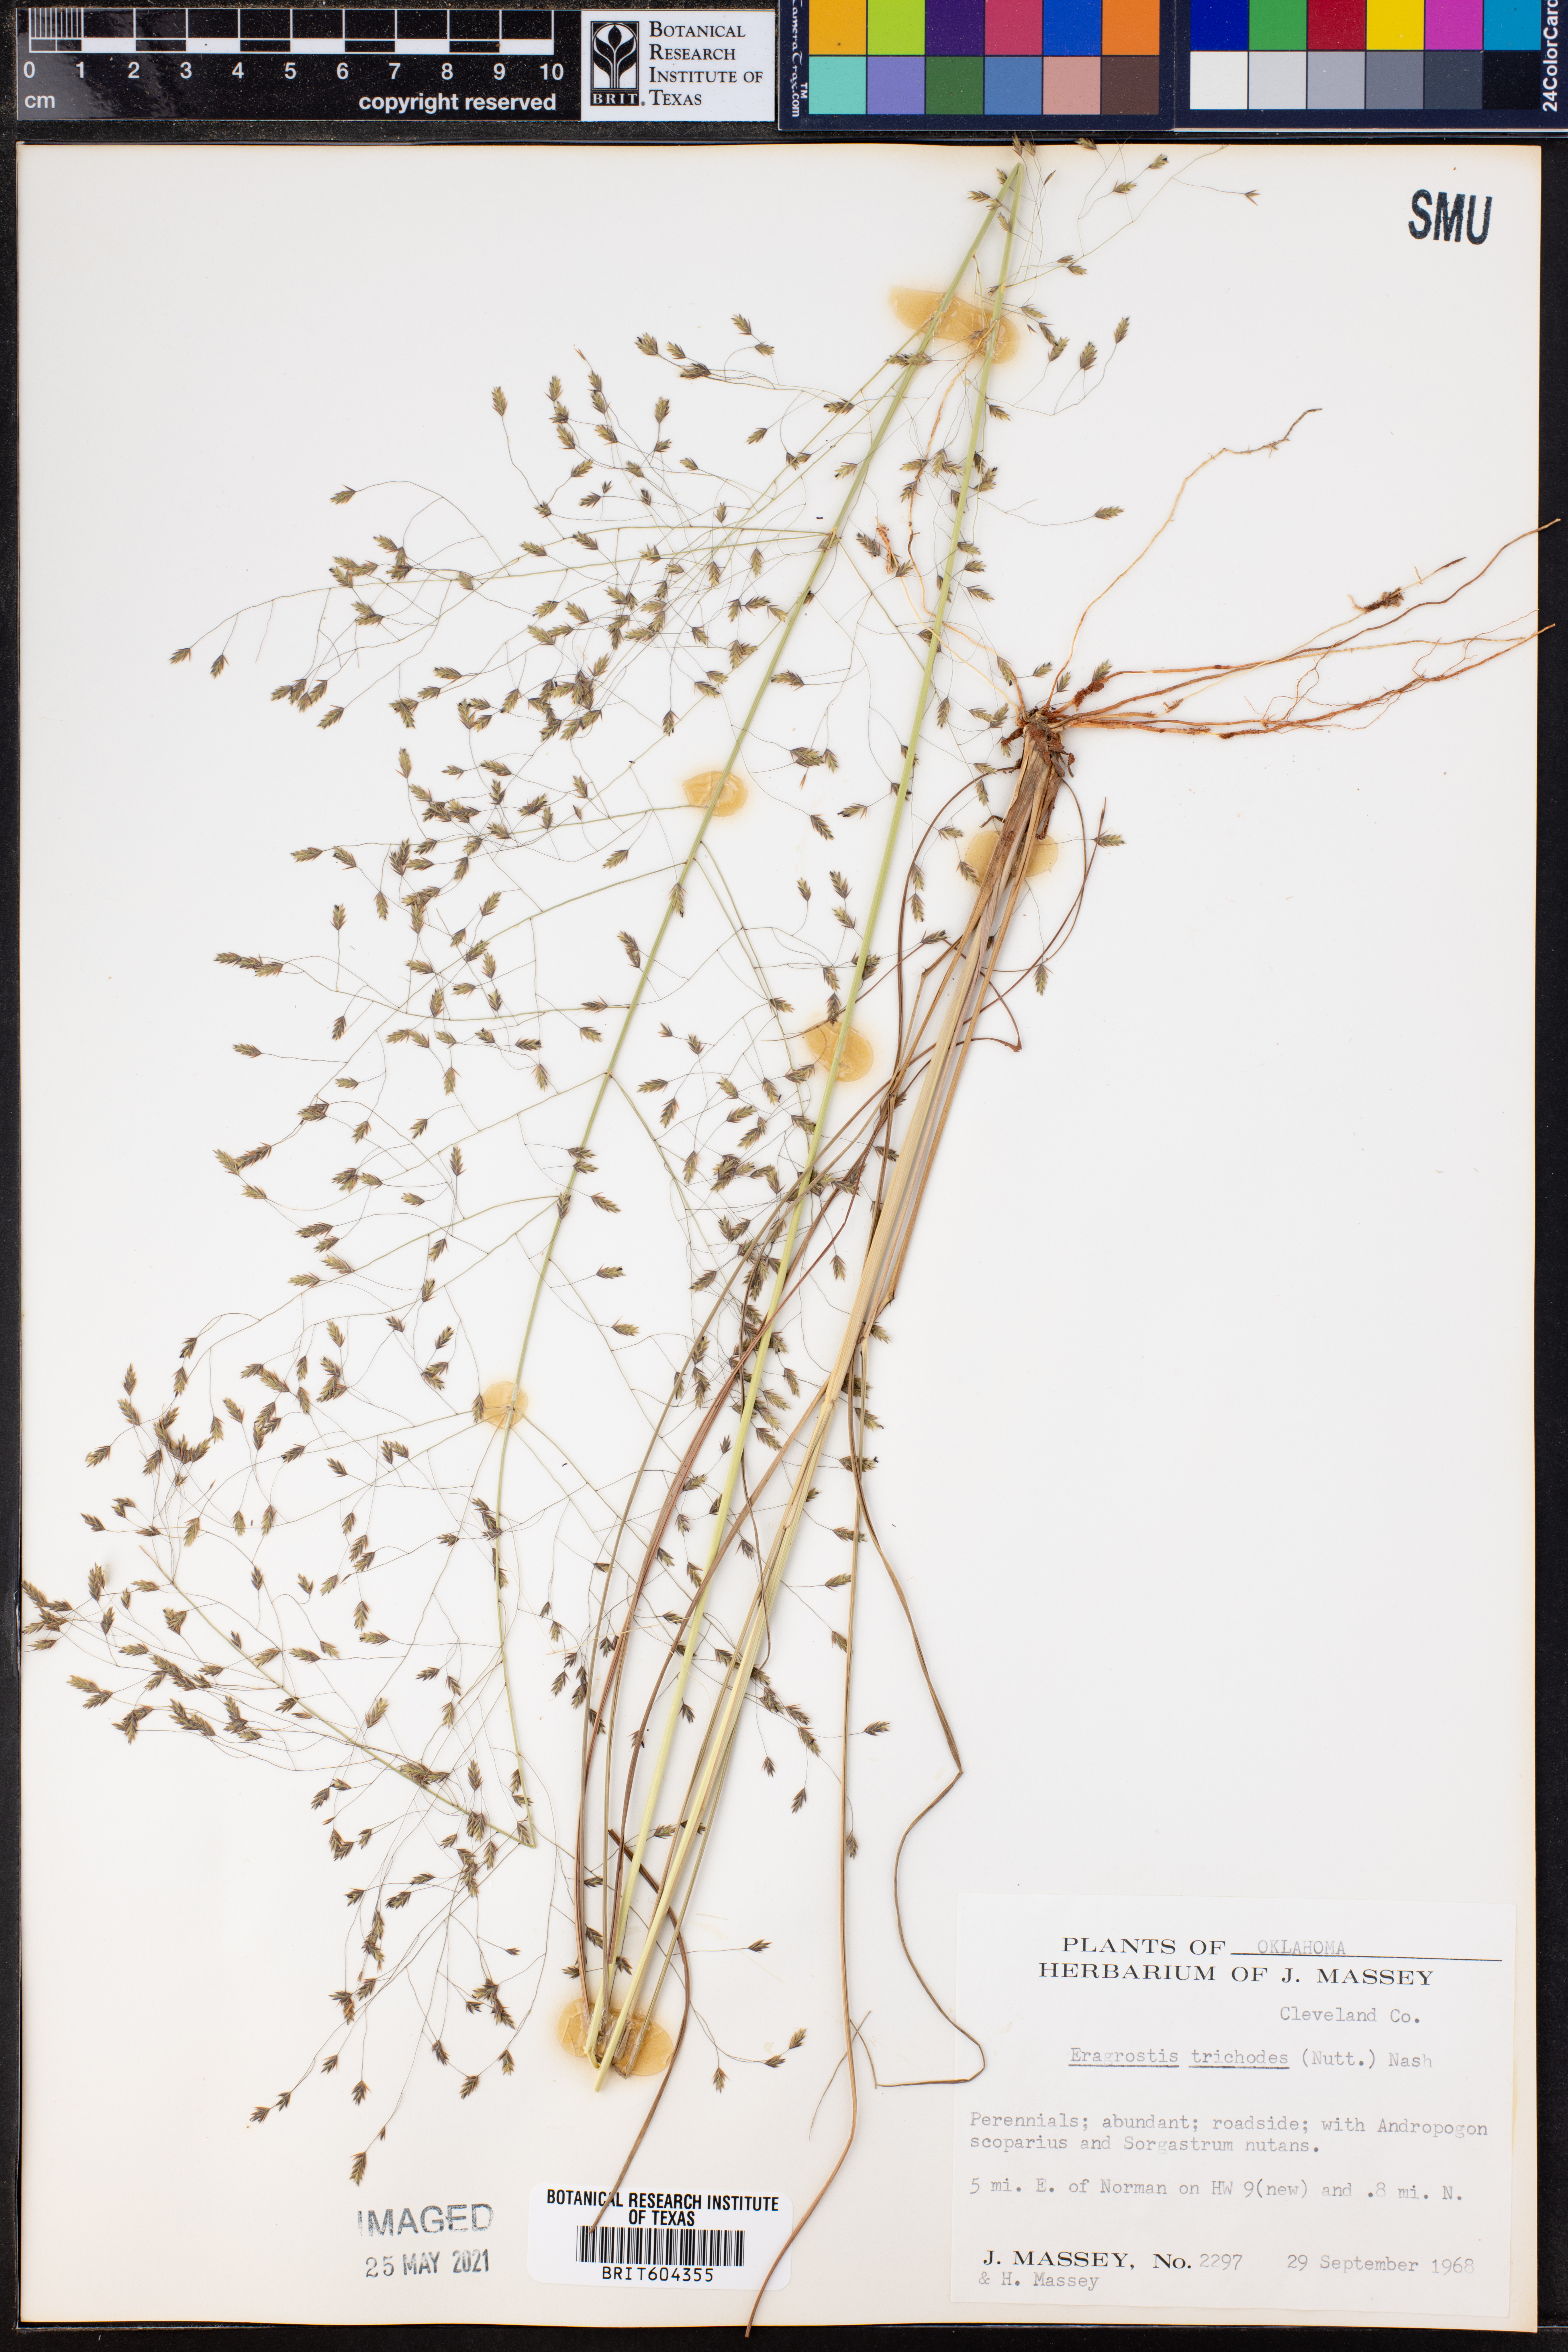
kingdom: Plantae
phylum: Tracheophyta
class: Liliopsida
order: Poales
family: Poaceae
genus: Eragrostis
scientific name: Eragrostis trichodes
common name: Sand love grass
